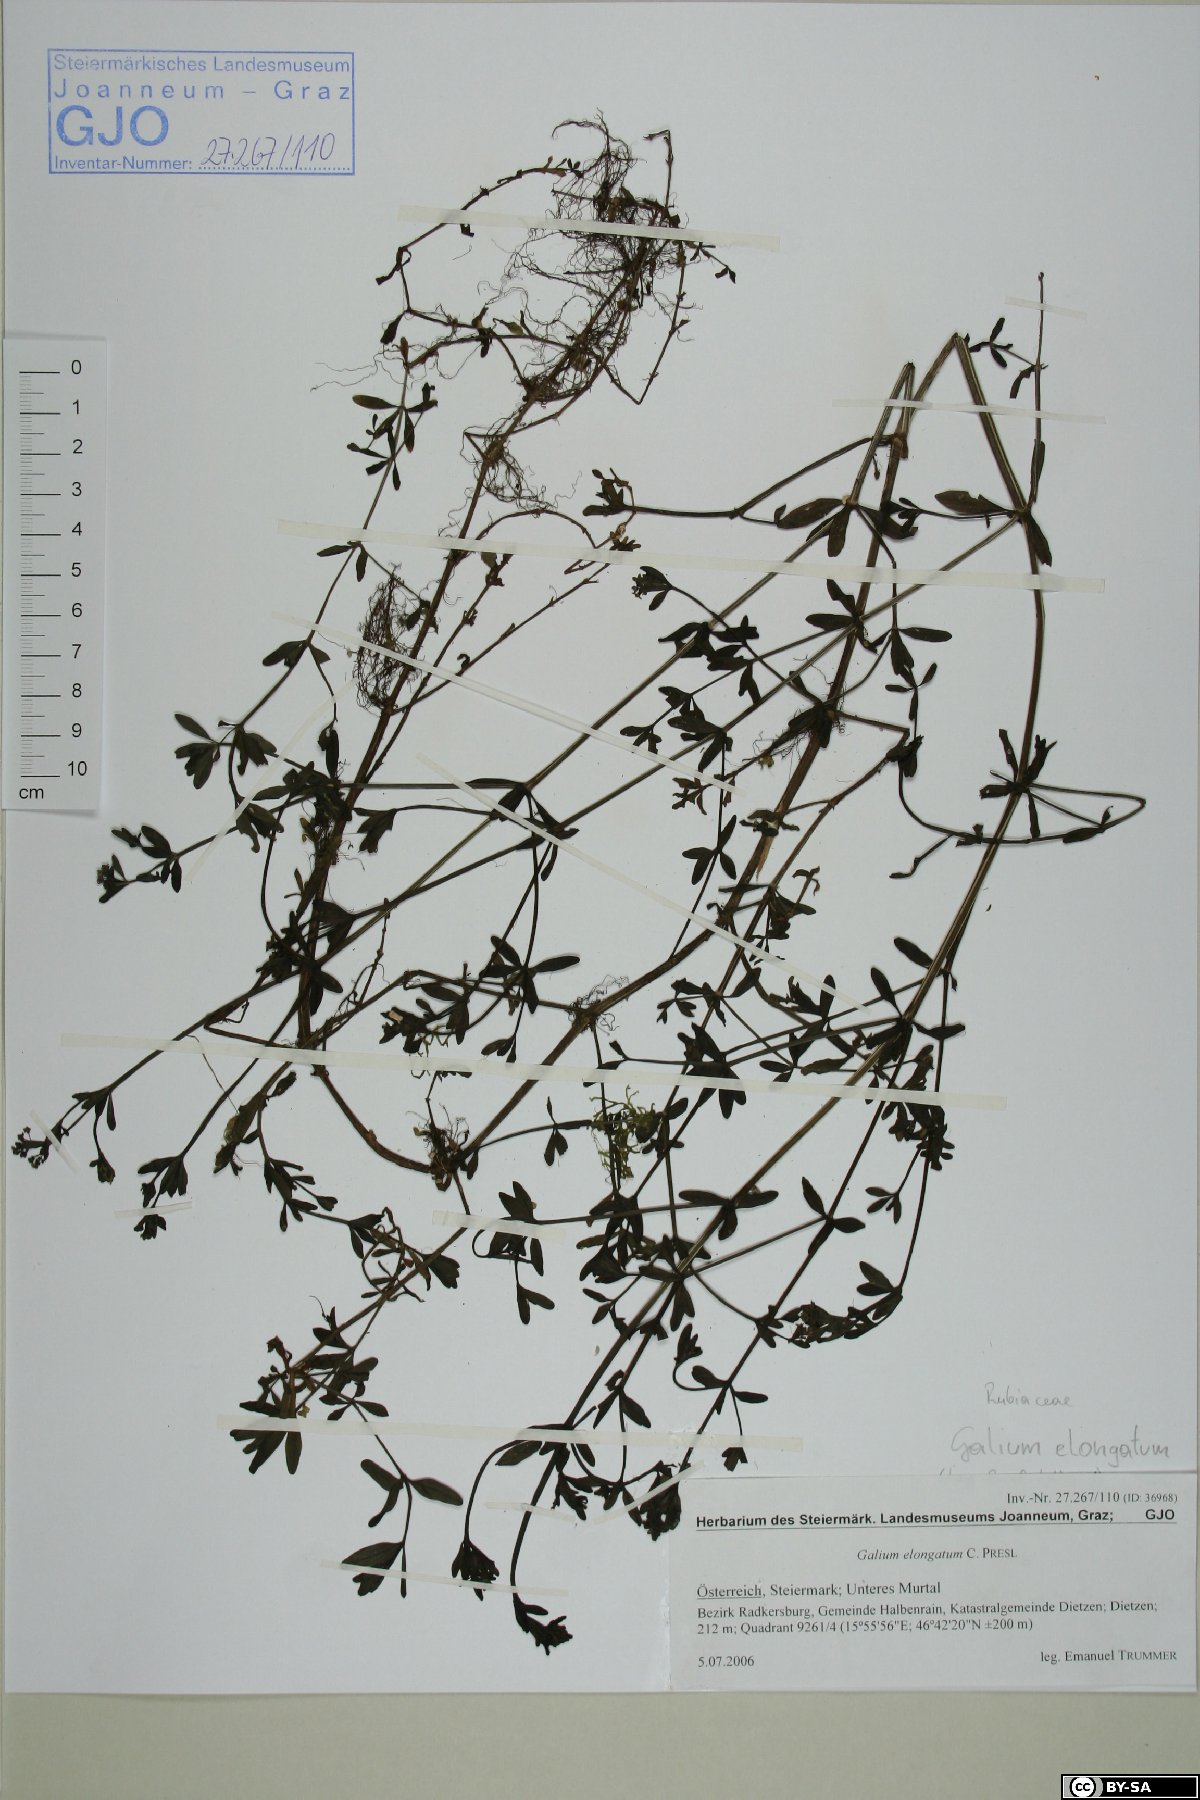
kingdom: Plantae
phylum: Tracheophyta
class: Magnoliopsida
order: Gentianales
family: Rubiaceae
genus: Galium
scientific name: Galium elongatum
